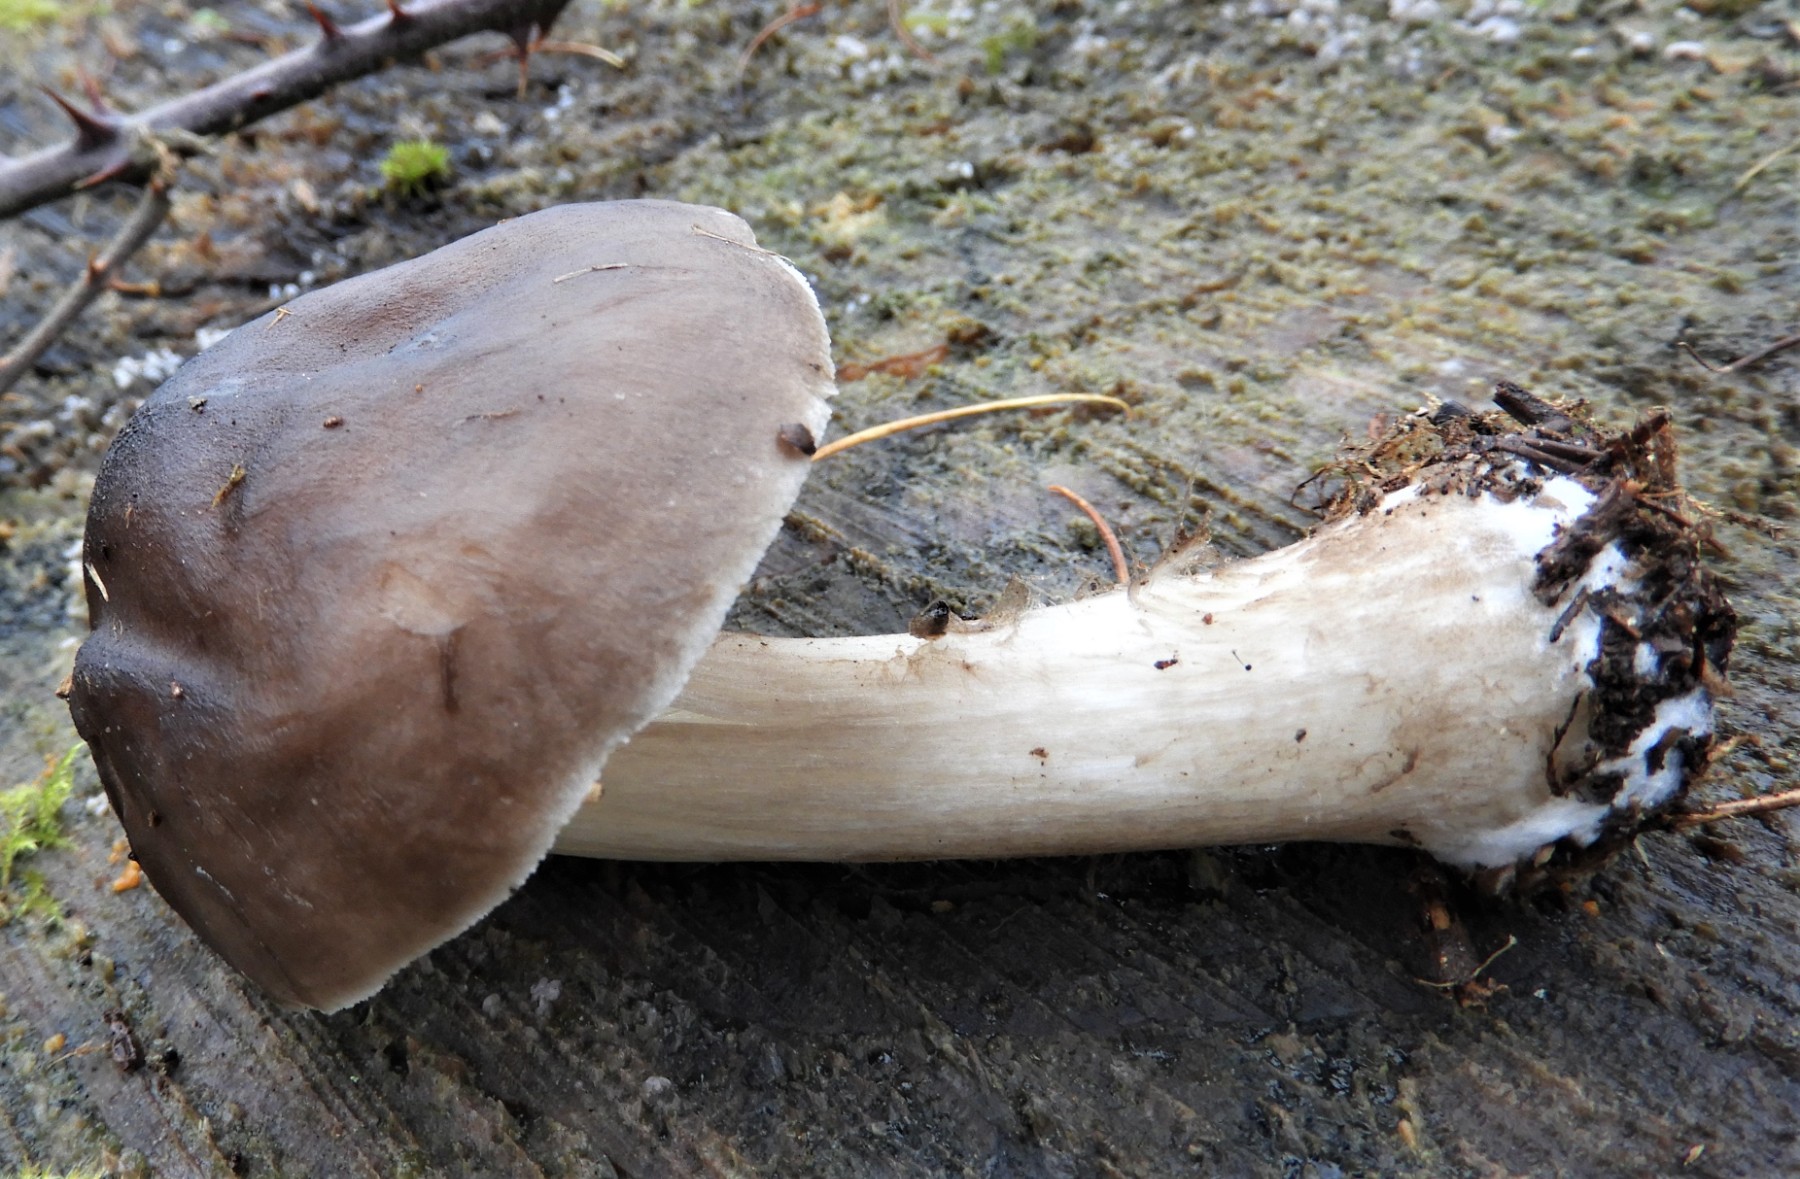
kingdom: Fungi
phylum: Basidiomycota
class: Agaricomycetes
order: Agaricales
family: Pluteaceae
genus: Pluteus
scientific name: Pluteus cervinus
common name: sodfarvet skærmhat
